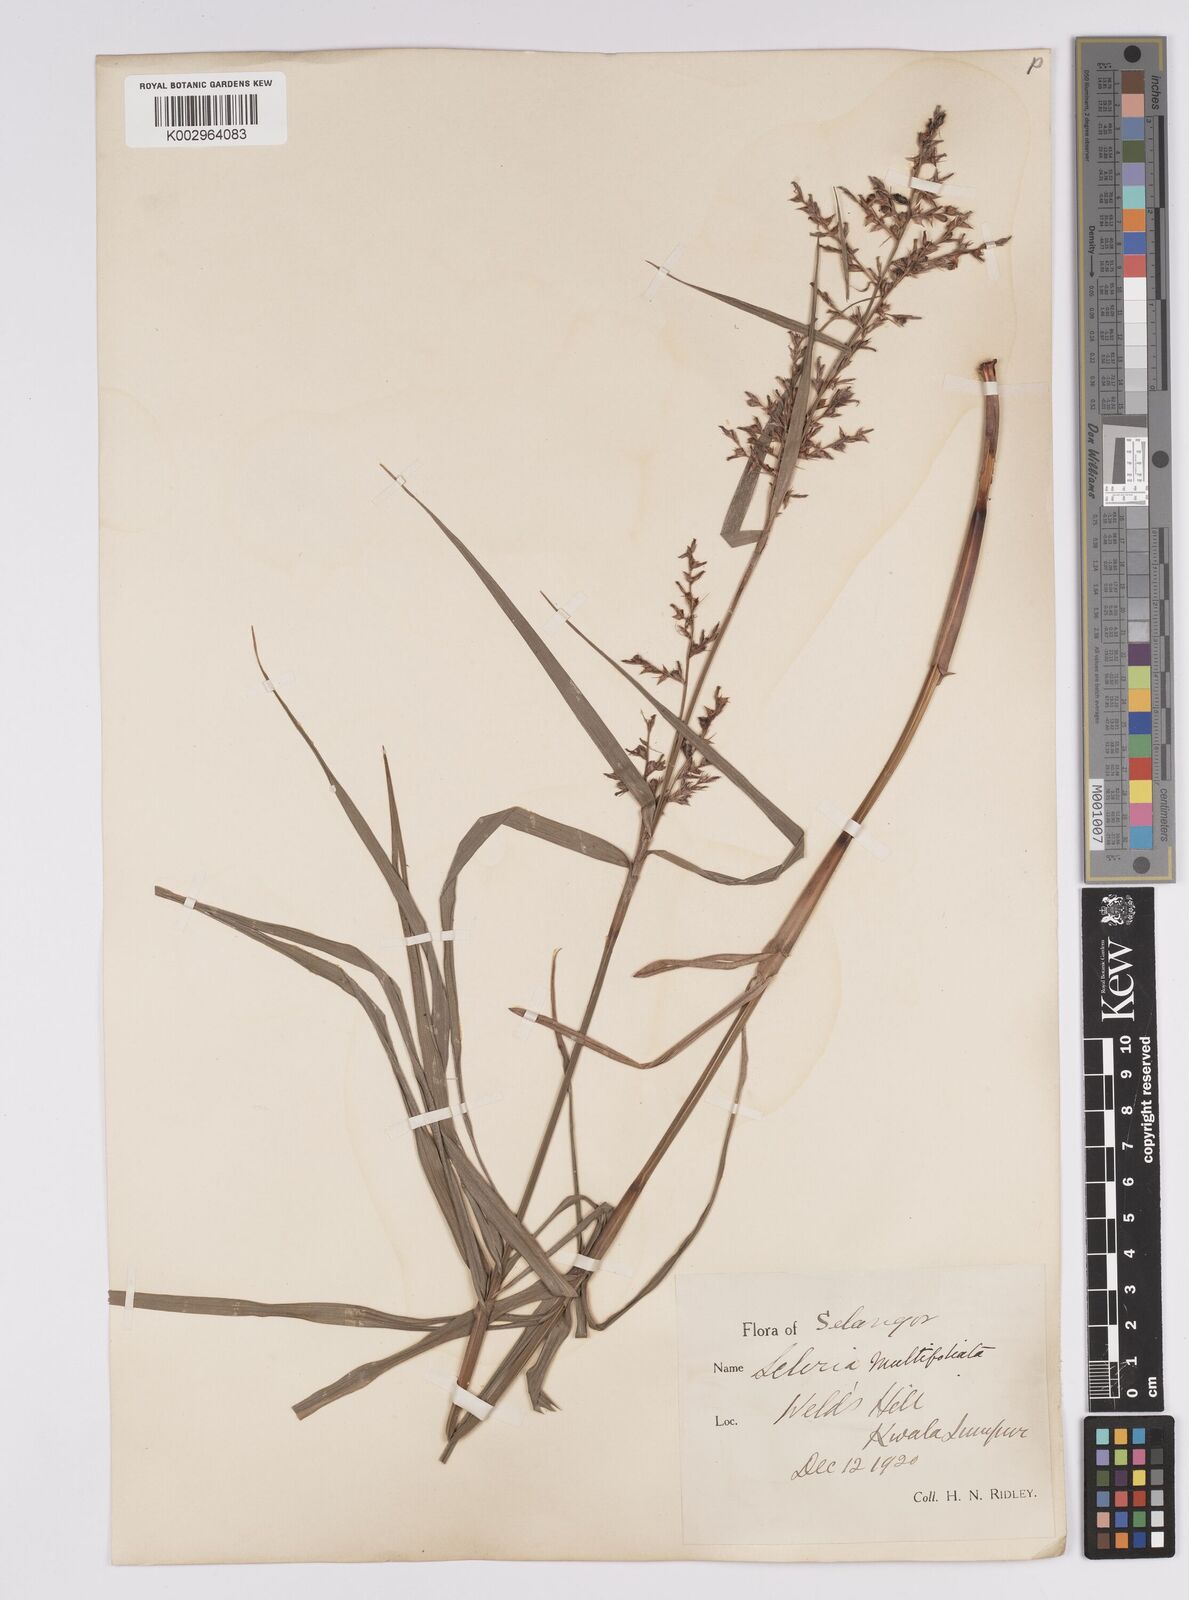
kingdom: Plantae
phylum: Tracheophyta
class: Liliopsida
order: Poales
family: Cyperaceae
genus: Scleria
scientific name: Scleria purpurascens
